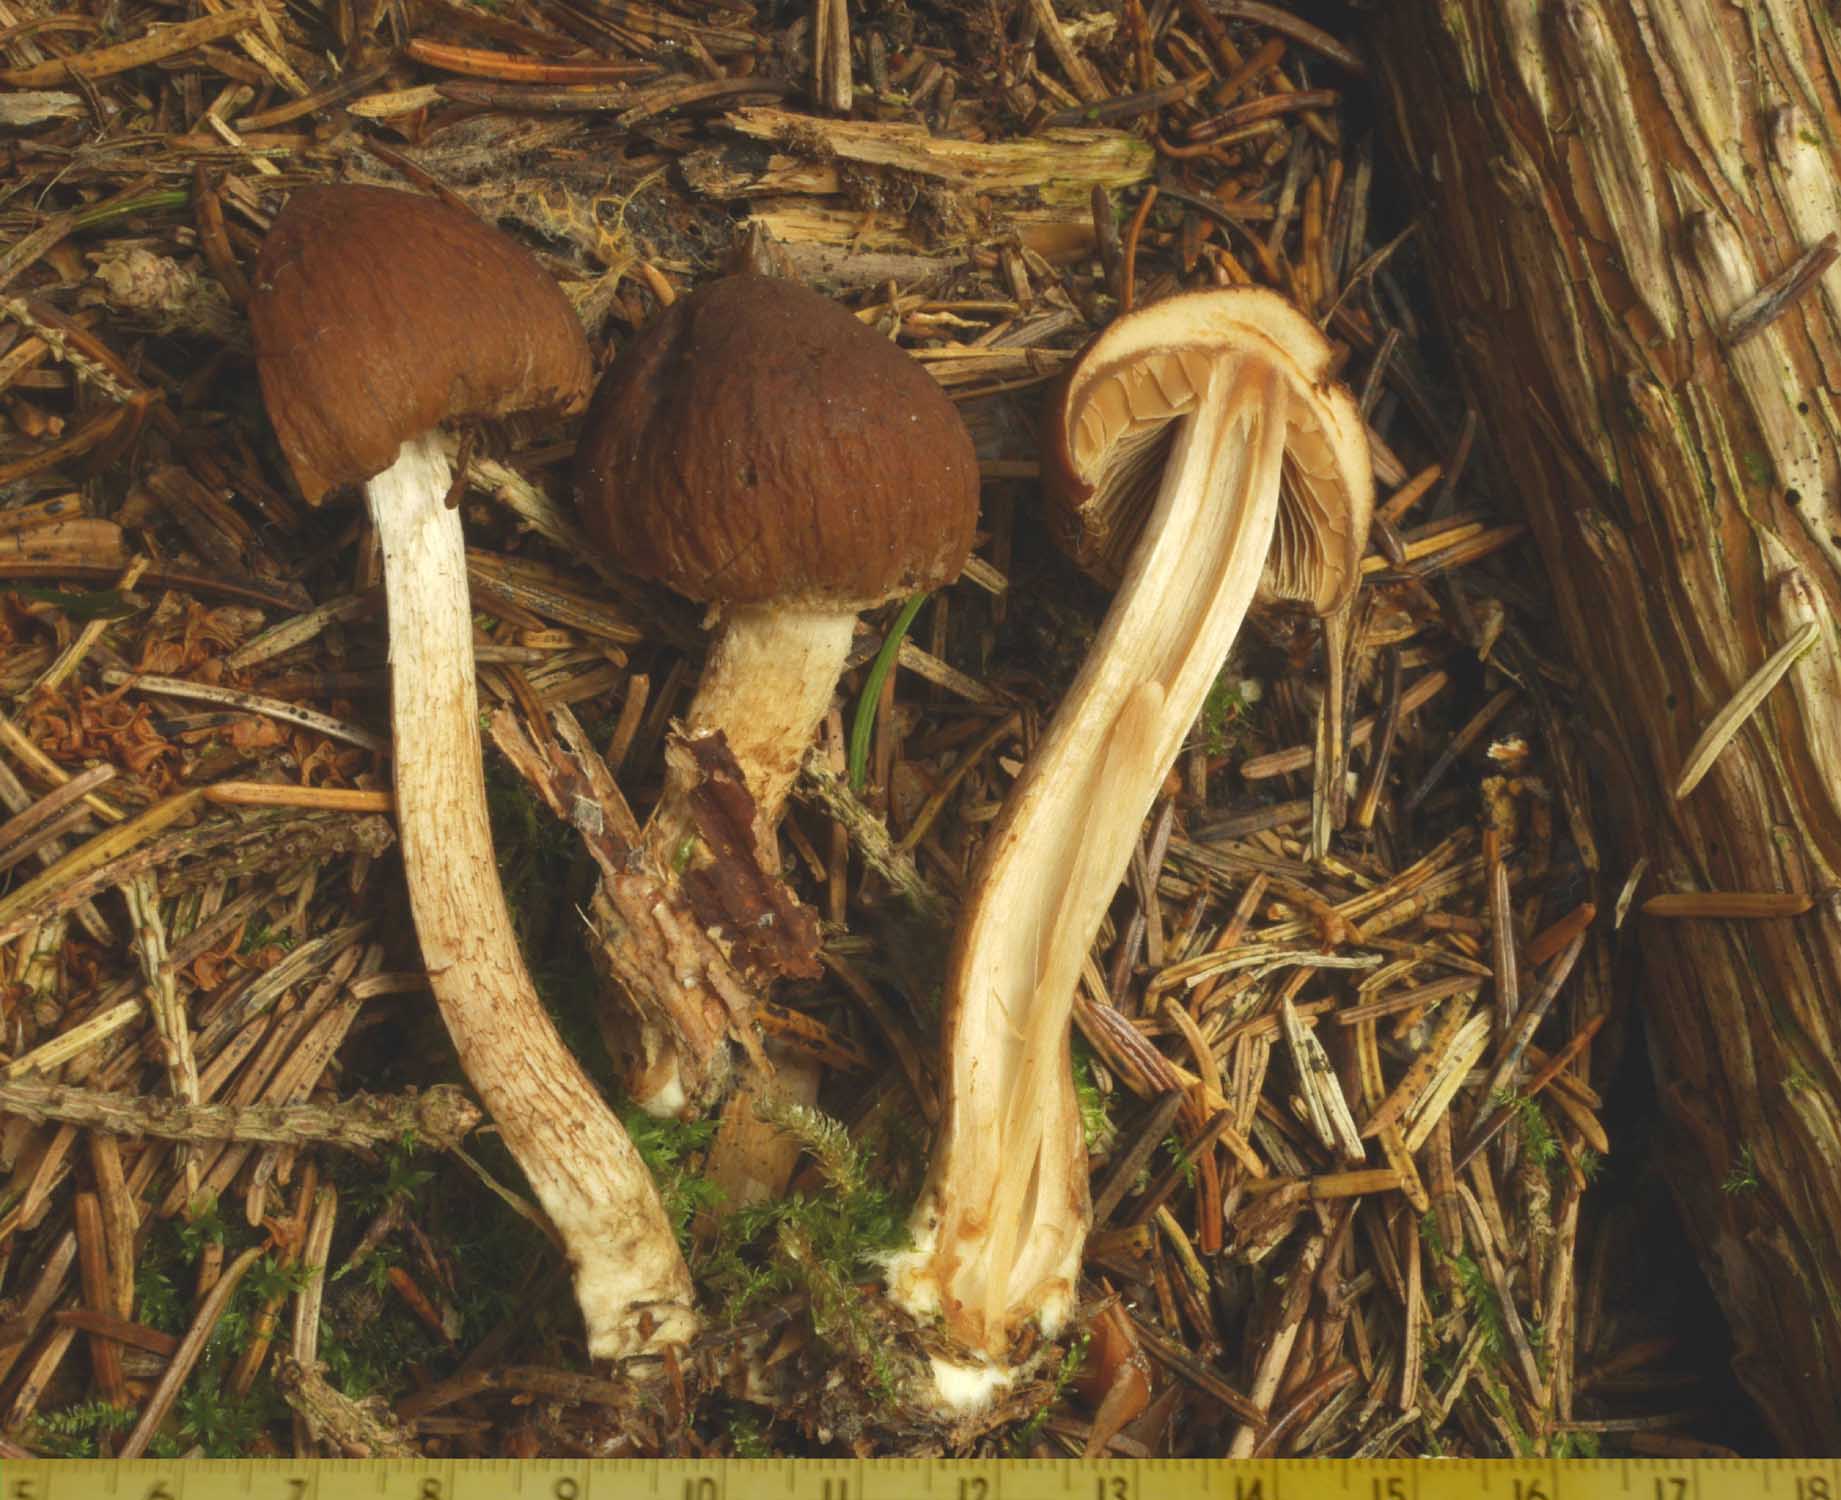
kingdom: Fungi
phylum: Basidiomycota
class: Agaricomycetes
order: Agaricales
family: Psathyrellaceae
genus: Psathyrella
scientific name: Psathyrella pertinax
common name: gran-mørkhat
